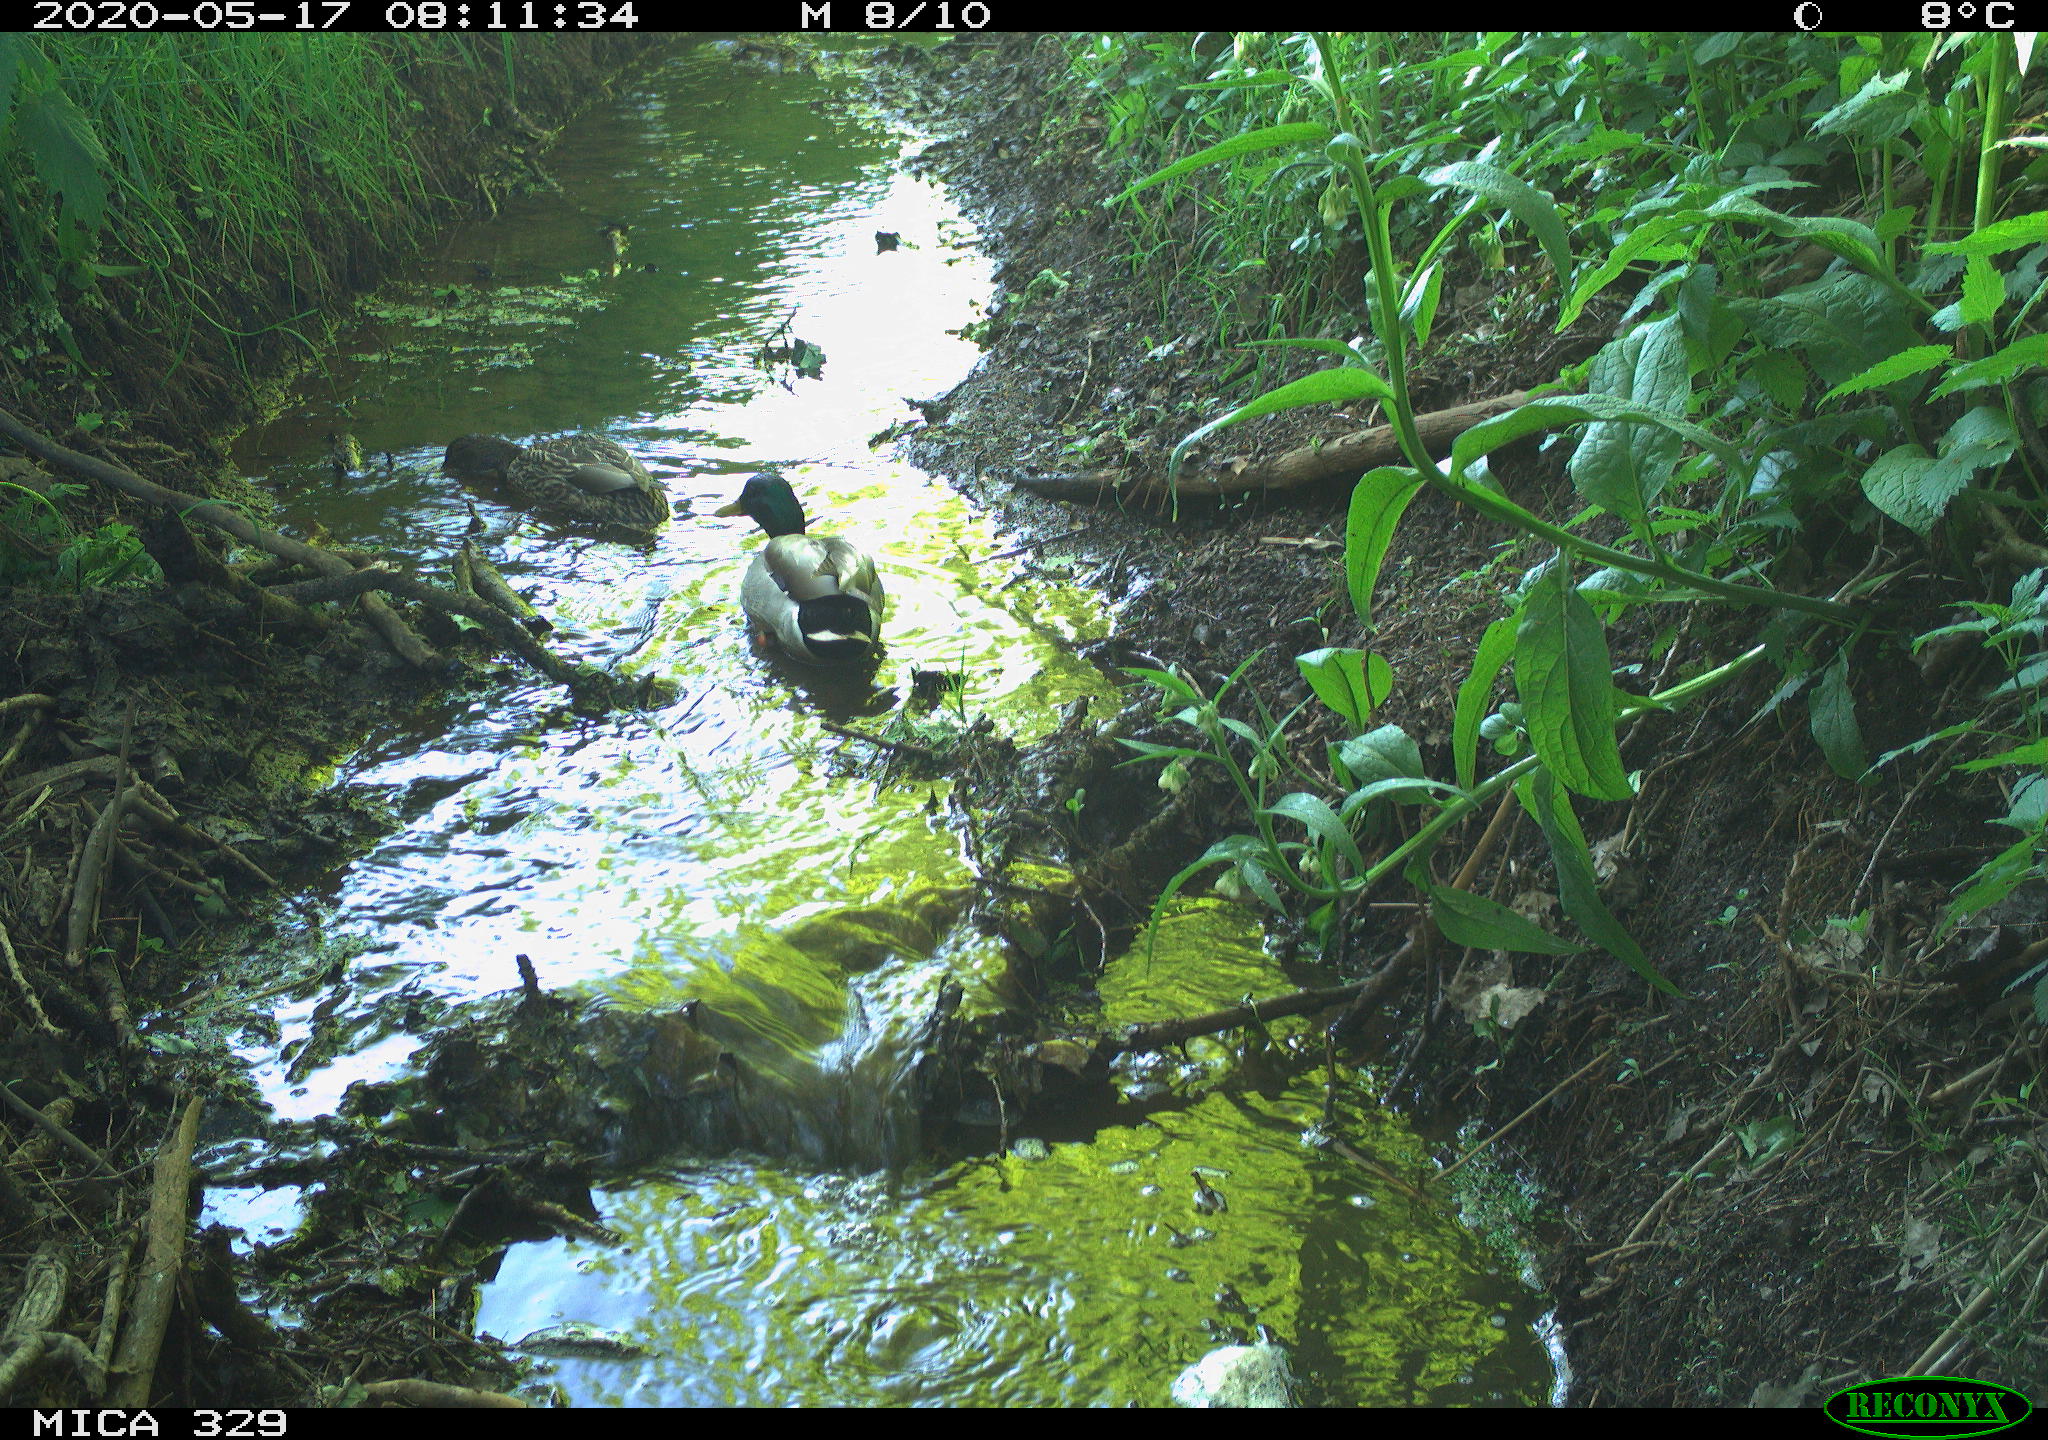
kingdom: Animalia
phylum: Chordata
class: Aves
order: Anseriformes
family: Anatidae
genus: Anas
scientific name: Anas platyrhynchos
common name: Mallard
